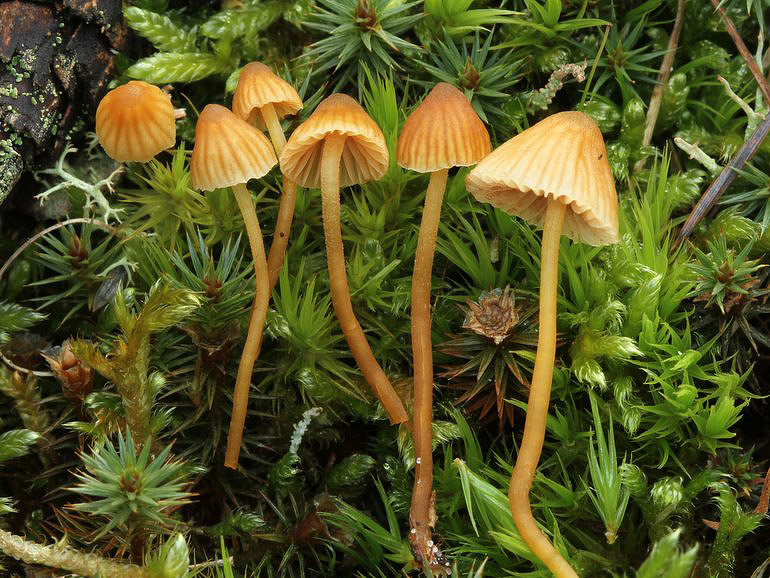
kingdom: Fungi
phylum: Basidiomycota
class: Agaricomycetes
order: Agaricales
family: Hymenogastraceae
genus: Galerina
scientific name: Galerina hypnorum
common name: mos-hjelmhat
